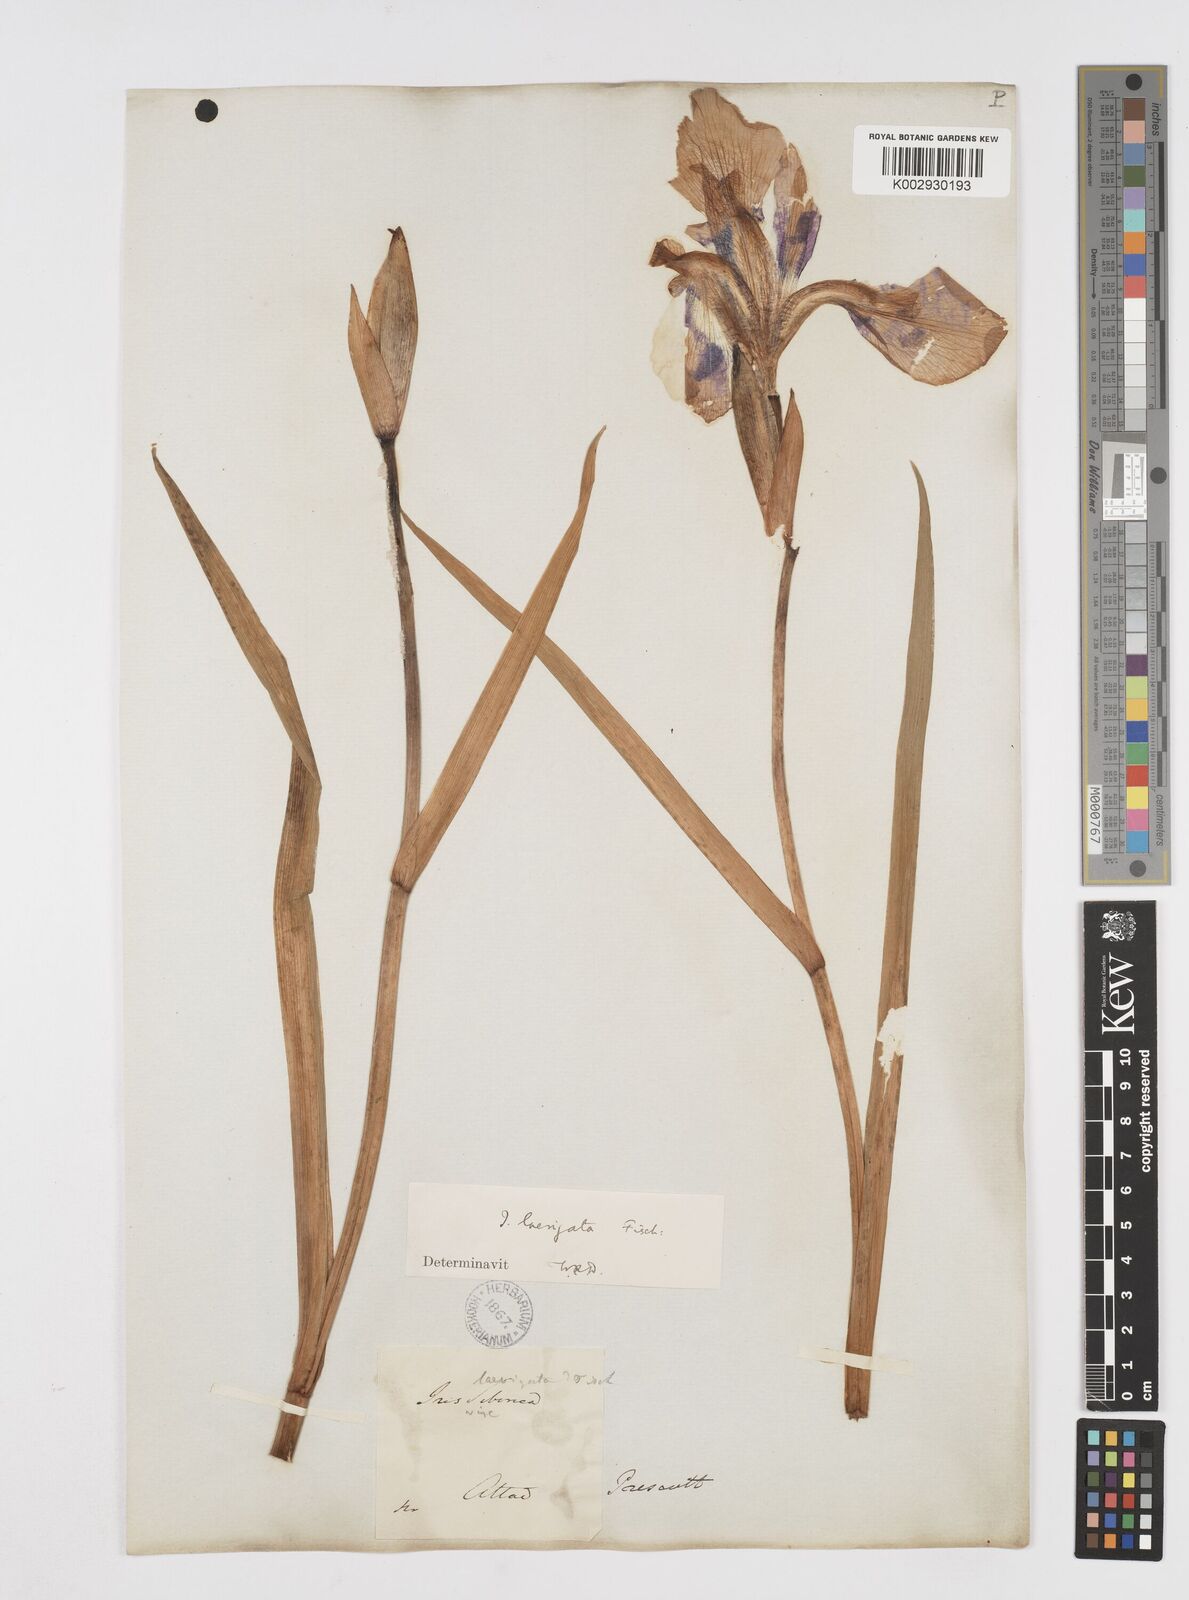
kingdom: Plantae
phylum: Tracheophyta
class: Liliopsida
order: Asparagales
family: Iridaceae
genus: Iris
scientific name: Iris laevigata
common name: Japanese iris
